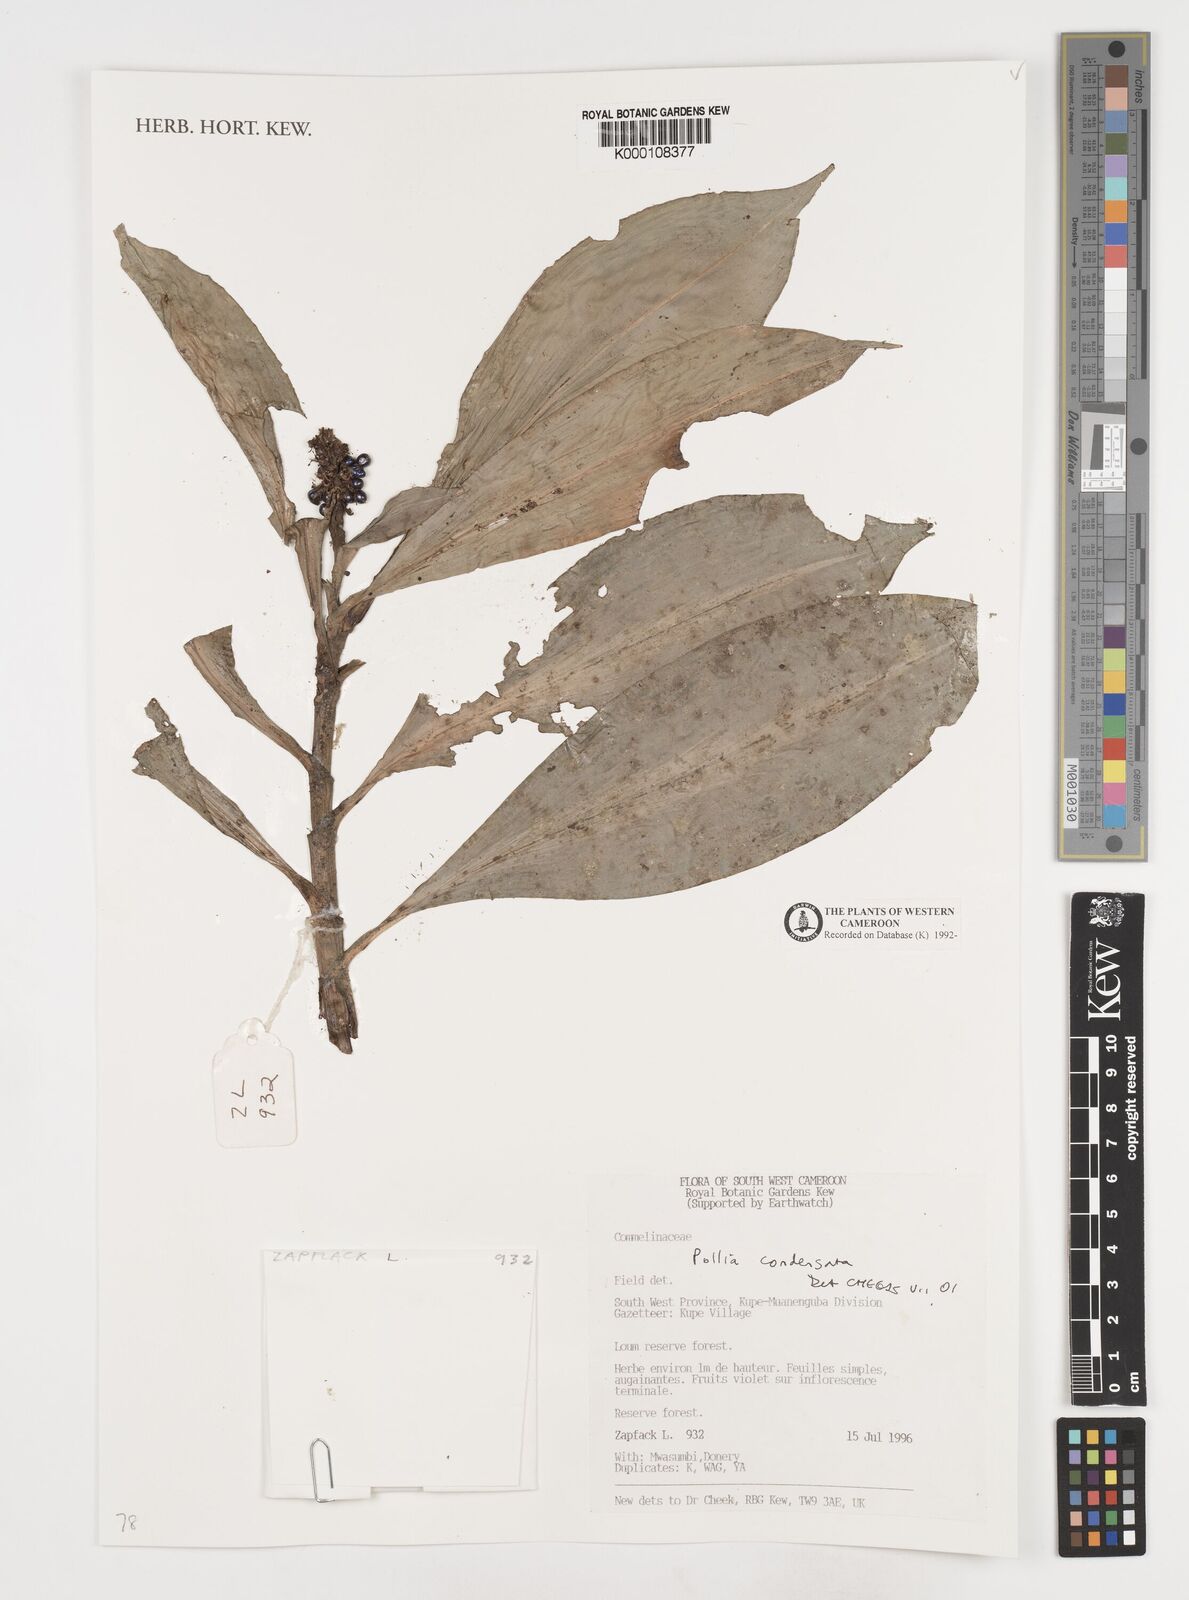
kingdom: Plantae
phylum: Tracheophyta
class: Liliopsida
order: Commelinales
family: Commelinaceae
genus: Pollia
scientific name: Pollia condensata
